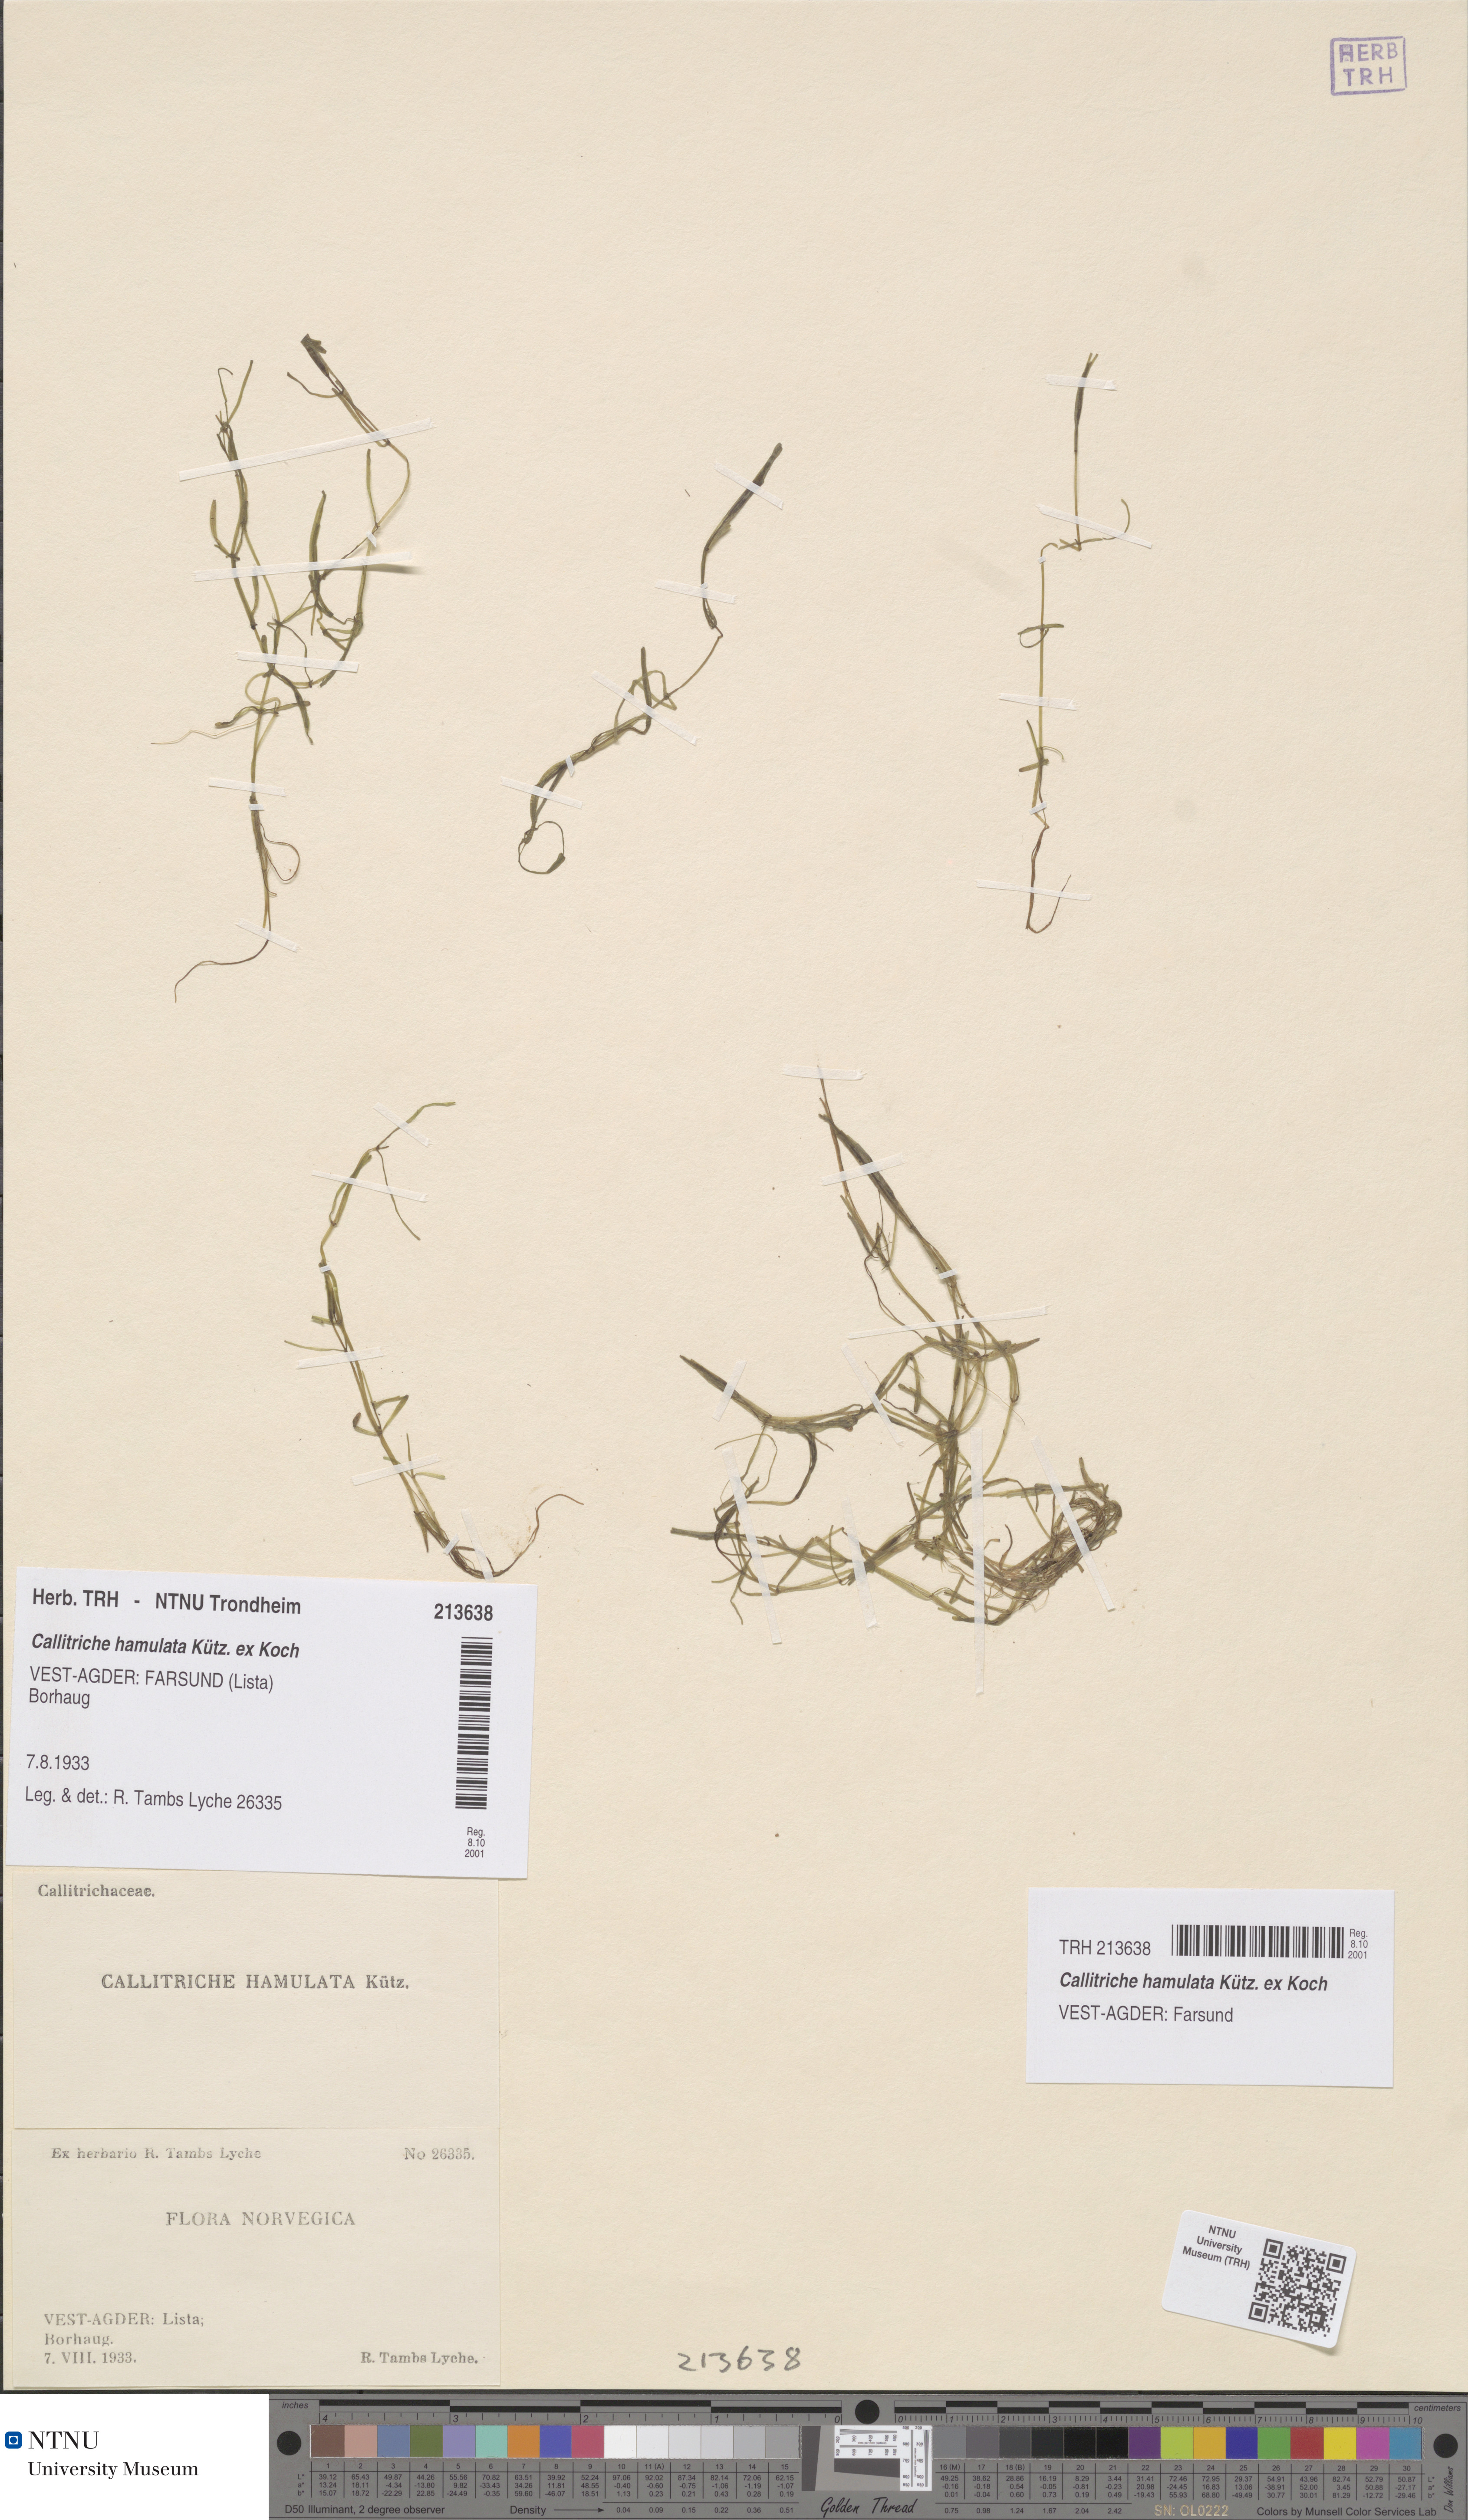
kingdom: Plantae
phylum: Tracheophyta
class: Magnoliopsida
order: Lamiales
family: Plantaginaceae
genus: Callitriche
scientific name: Callitriche hamulata
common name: Intermediate water-starwort
